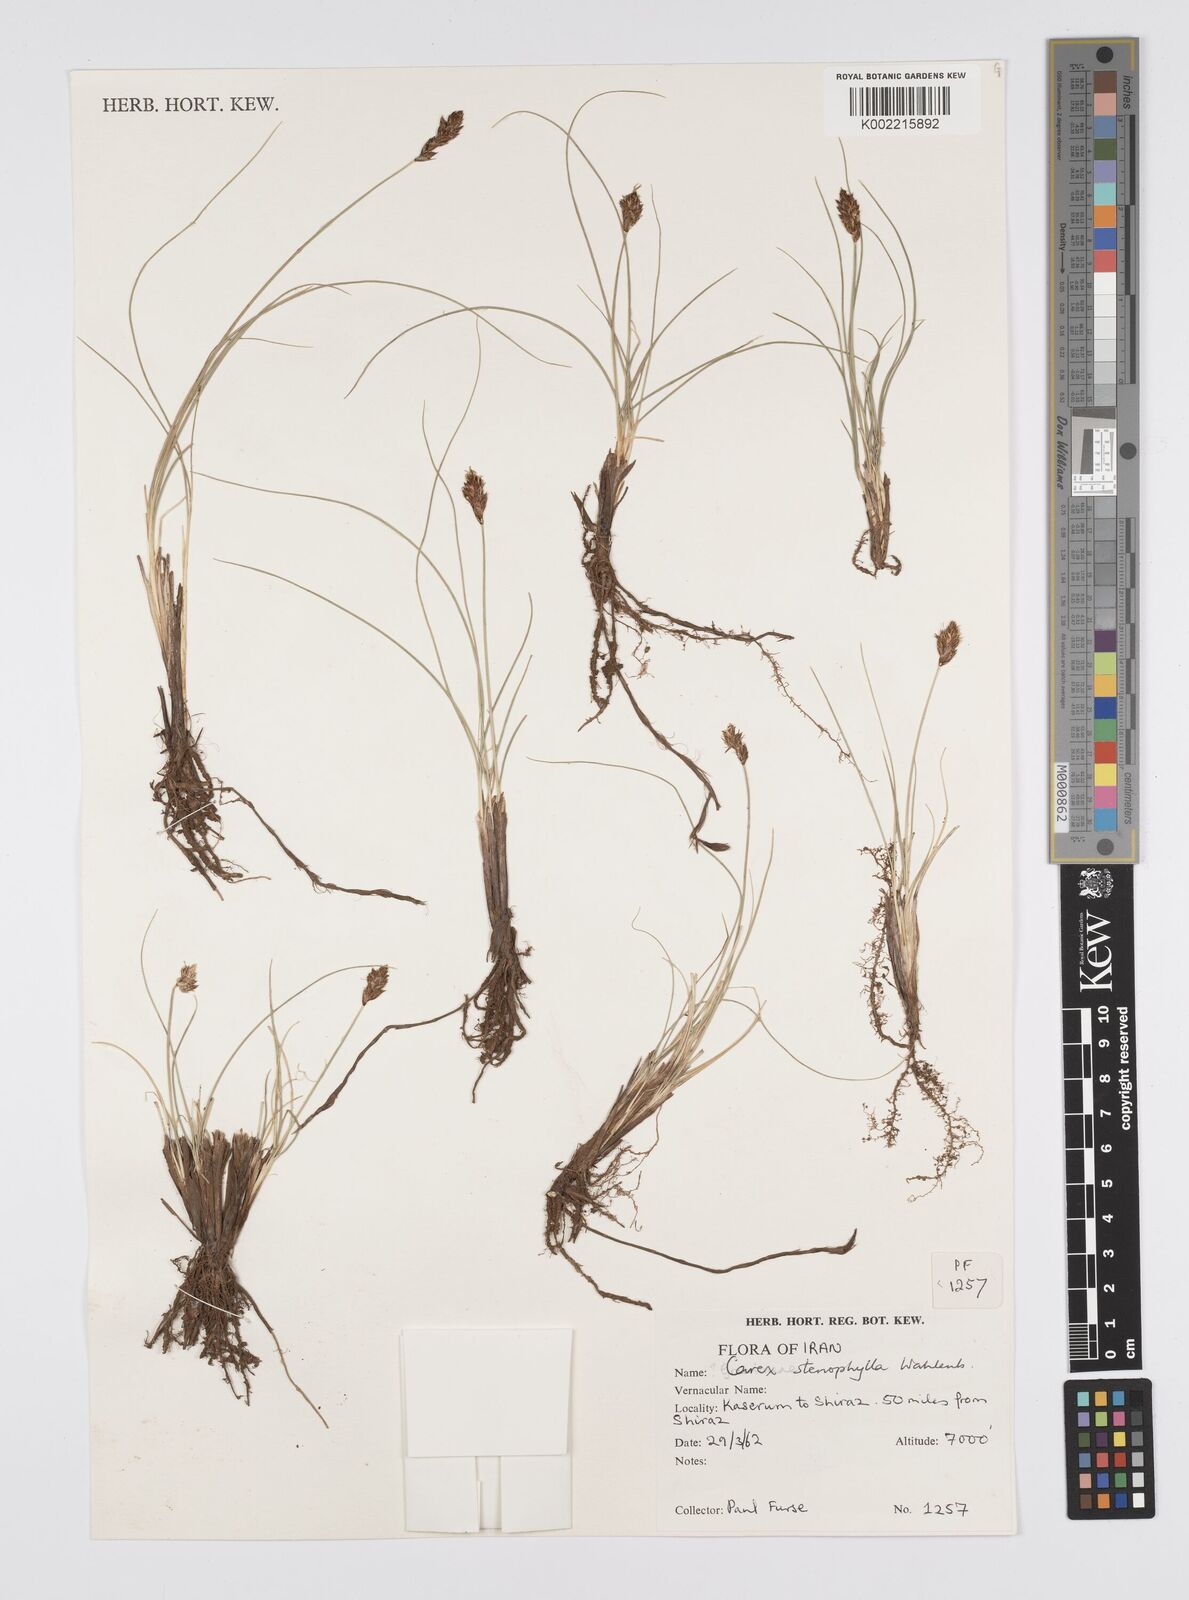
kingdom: Plantae
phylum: Tracheophyta
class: Liliopsida
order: Poales
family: Cyperaceae
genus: Carex
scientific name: Carex stenophylla
